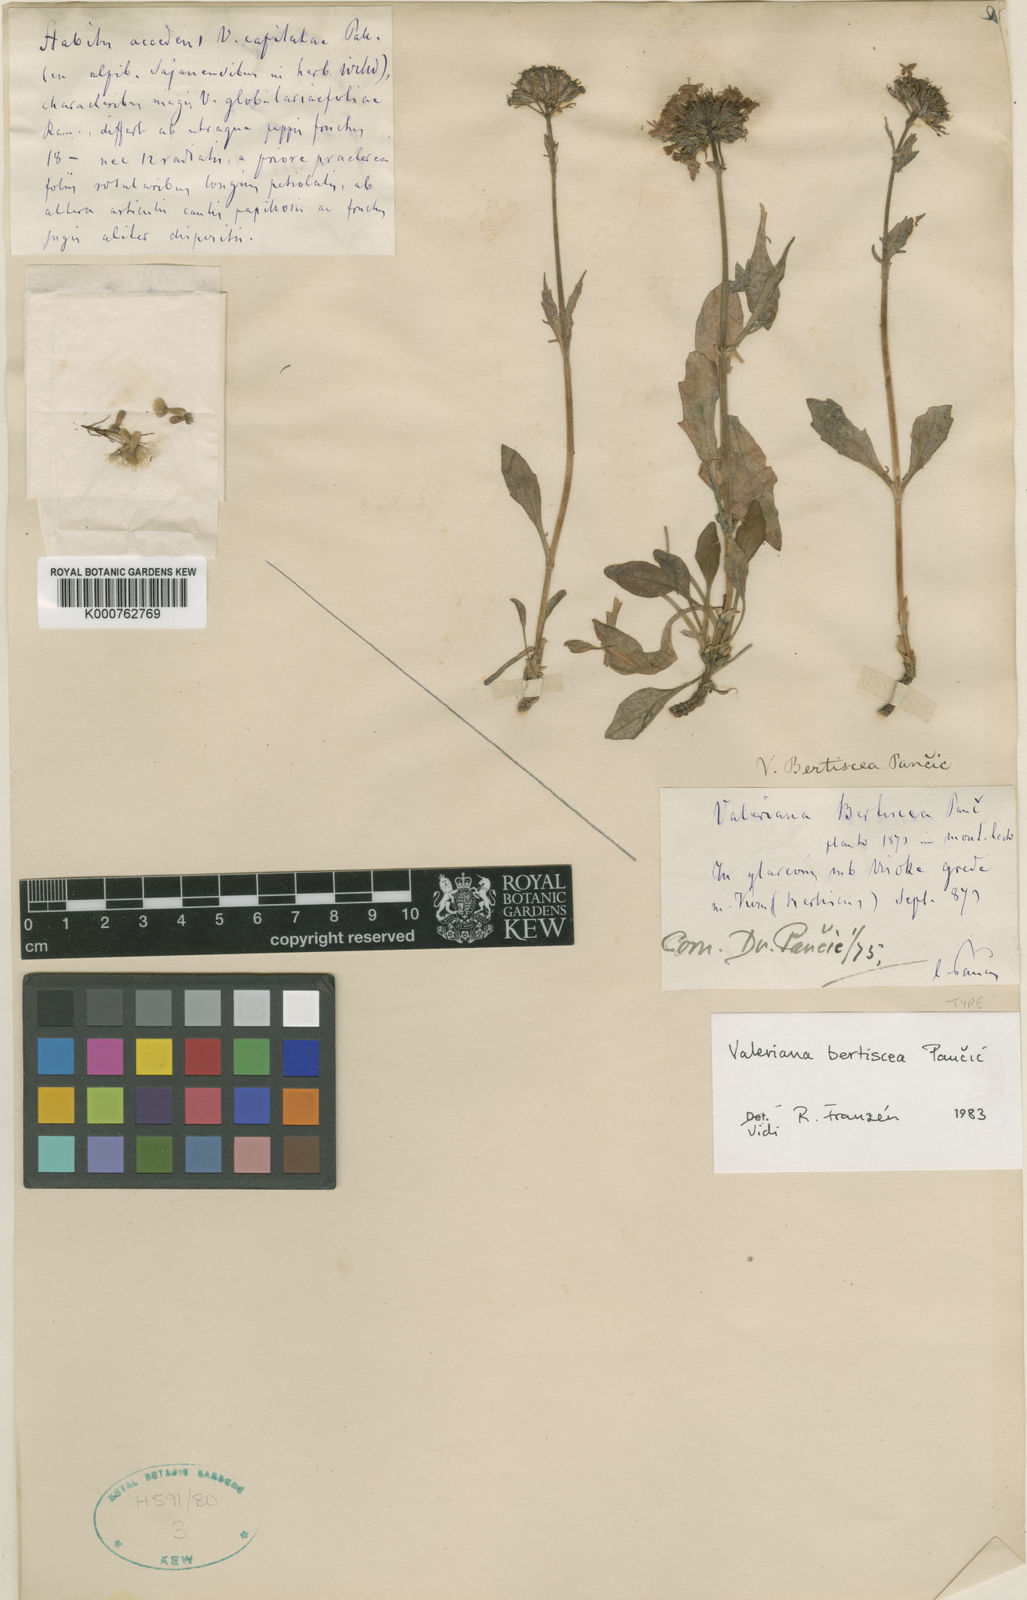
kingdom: Plantae
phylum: Tracheophyta
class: Magnoliopsida
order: Dipsacales
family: Caprifoliaceae
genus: Valeriana
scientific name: Valeriana bertiscea
